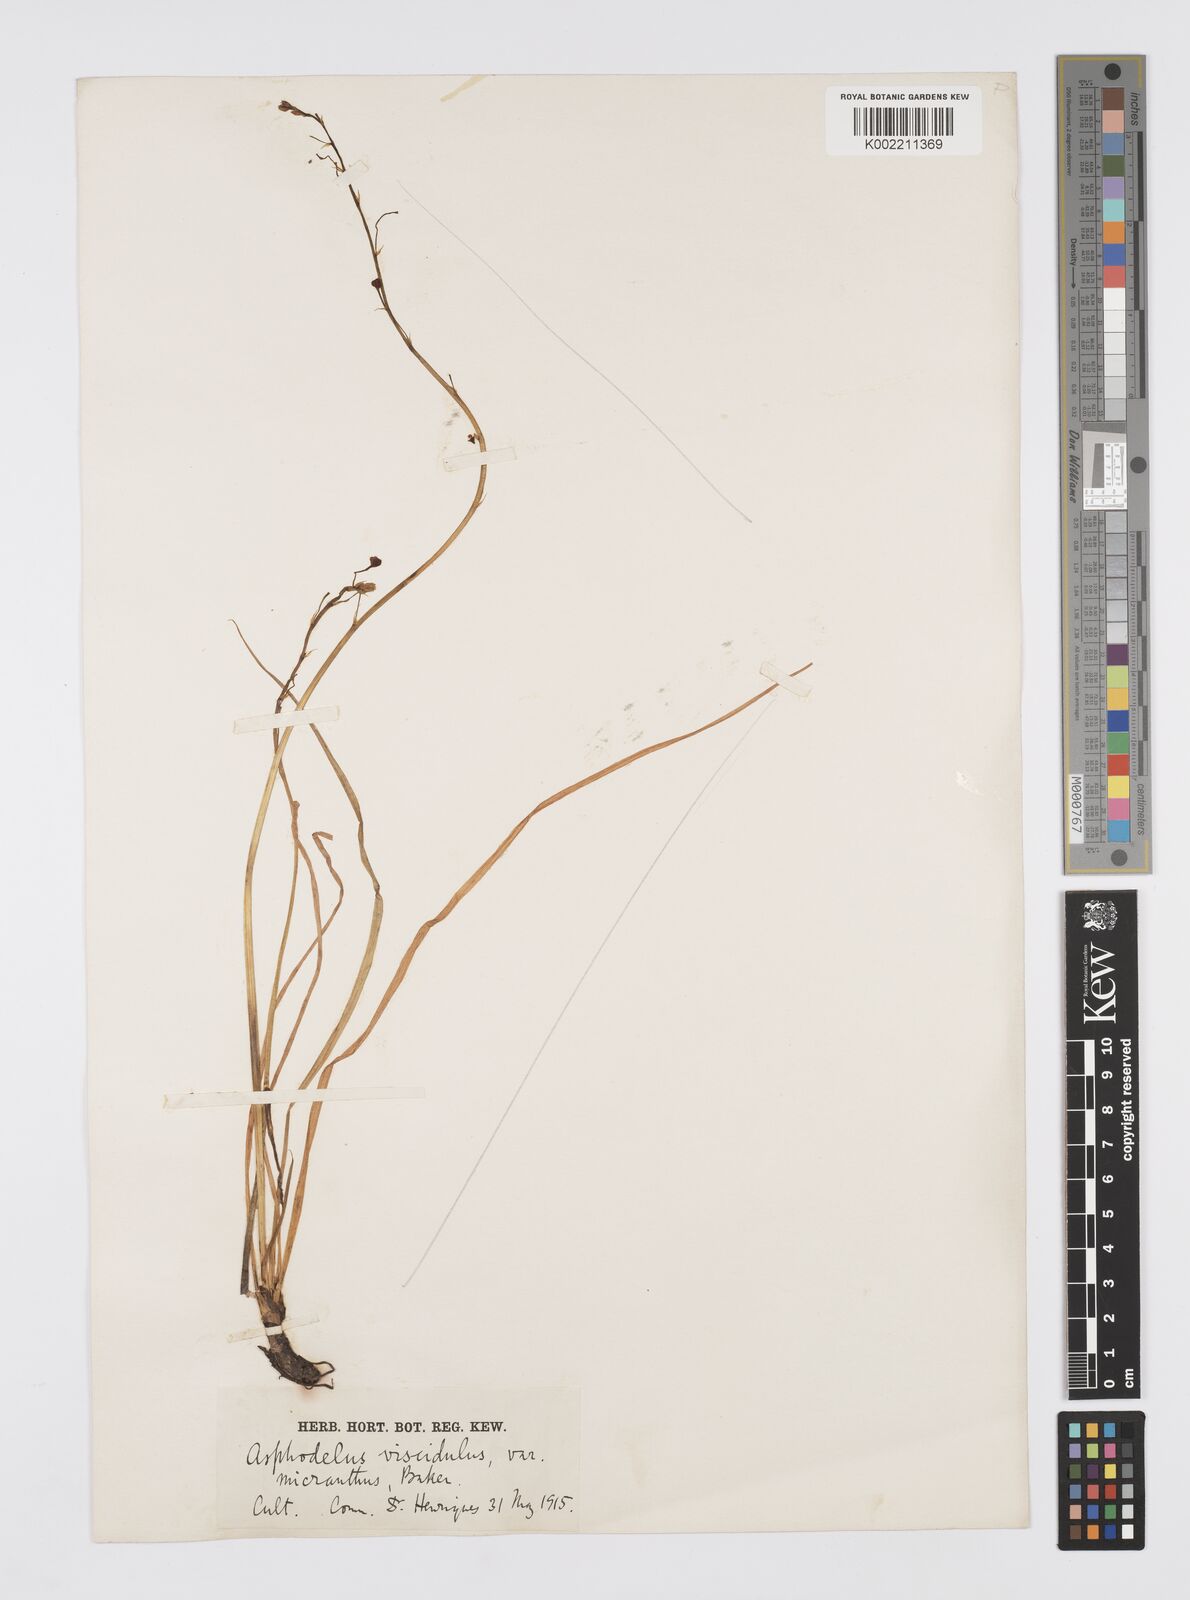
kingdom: Plantae
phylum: Tracheophyta
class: Liliopsida
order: Asparagales
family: Asphodelaceae
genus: Asphodelus
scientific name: Asphodelus viscidulus
